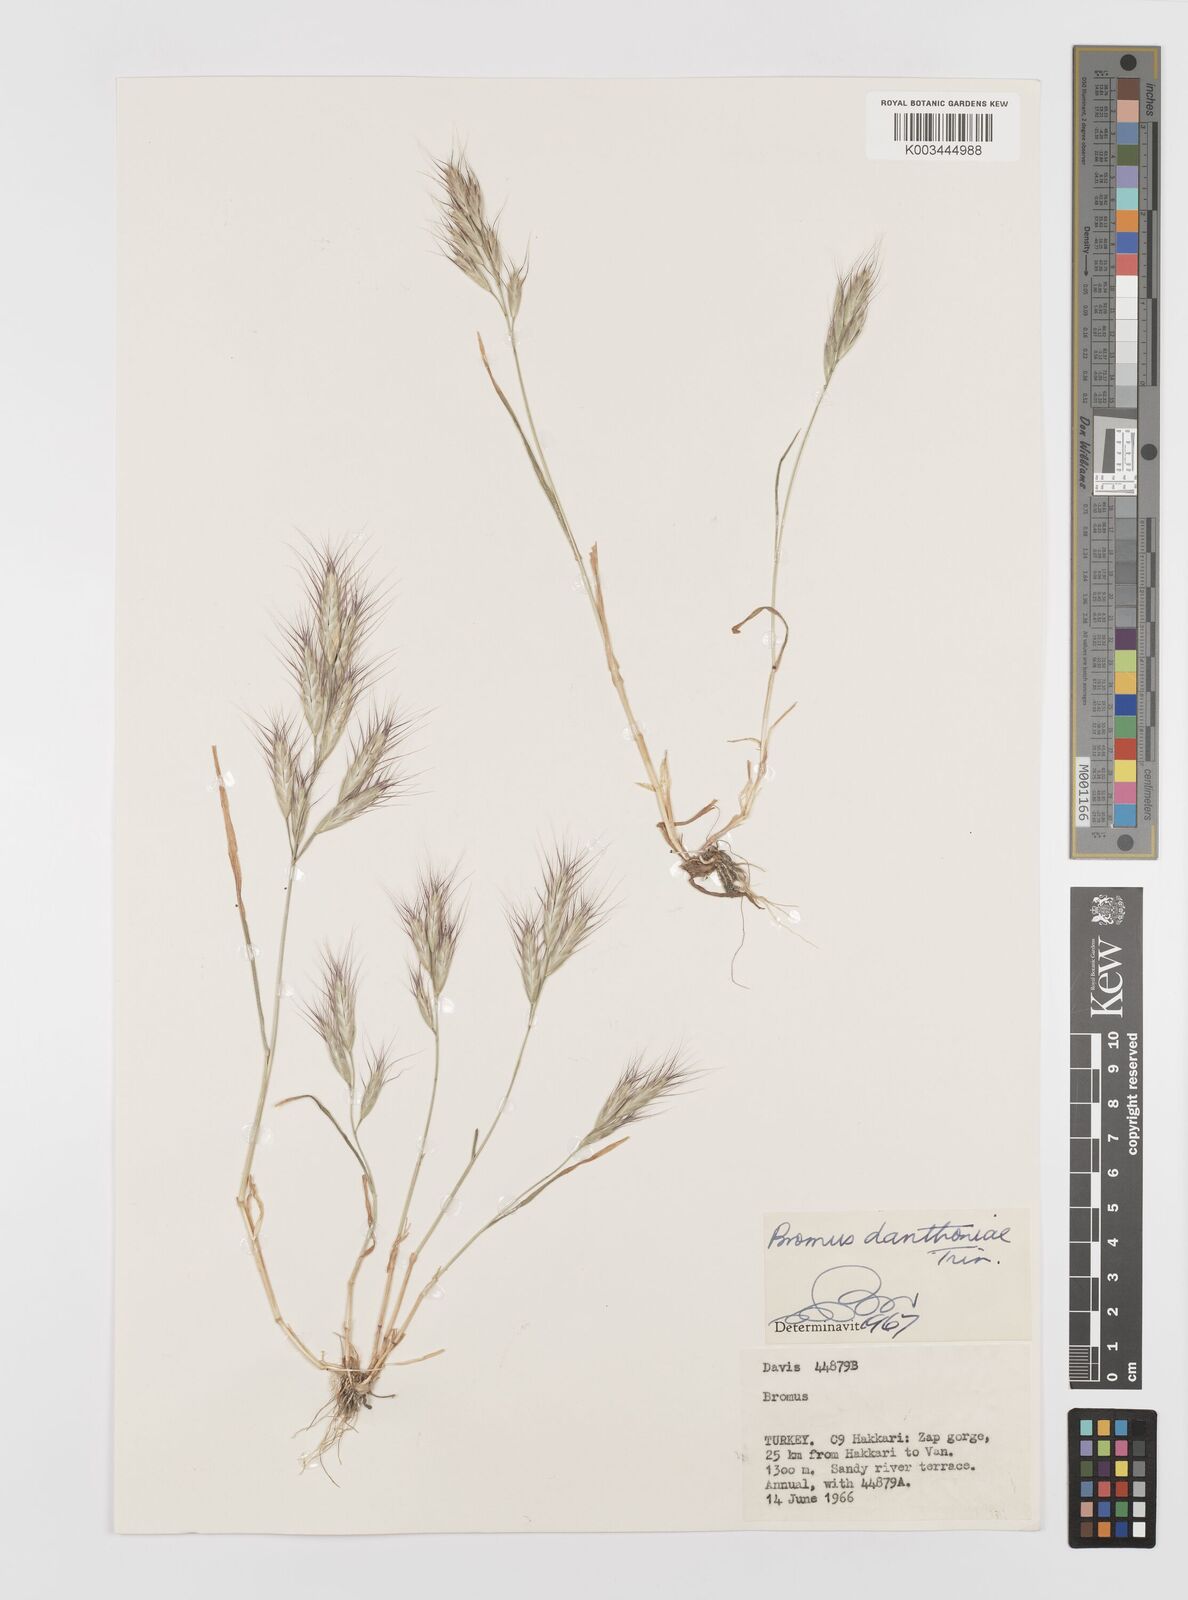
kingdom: Plantae
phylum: Tracheophyta
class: Liliopsida
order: Poales
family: Poaceae
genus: Bromus
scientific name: Bromus danthoniae
